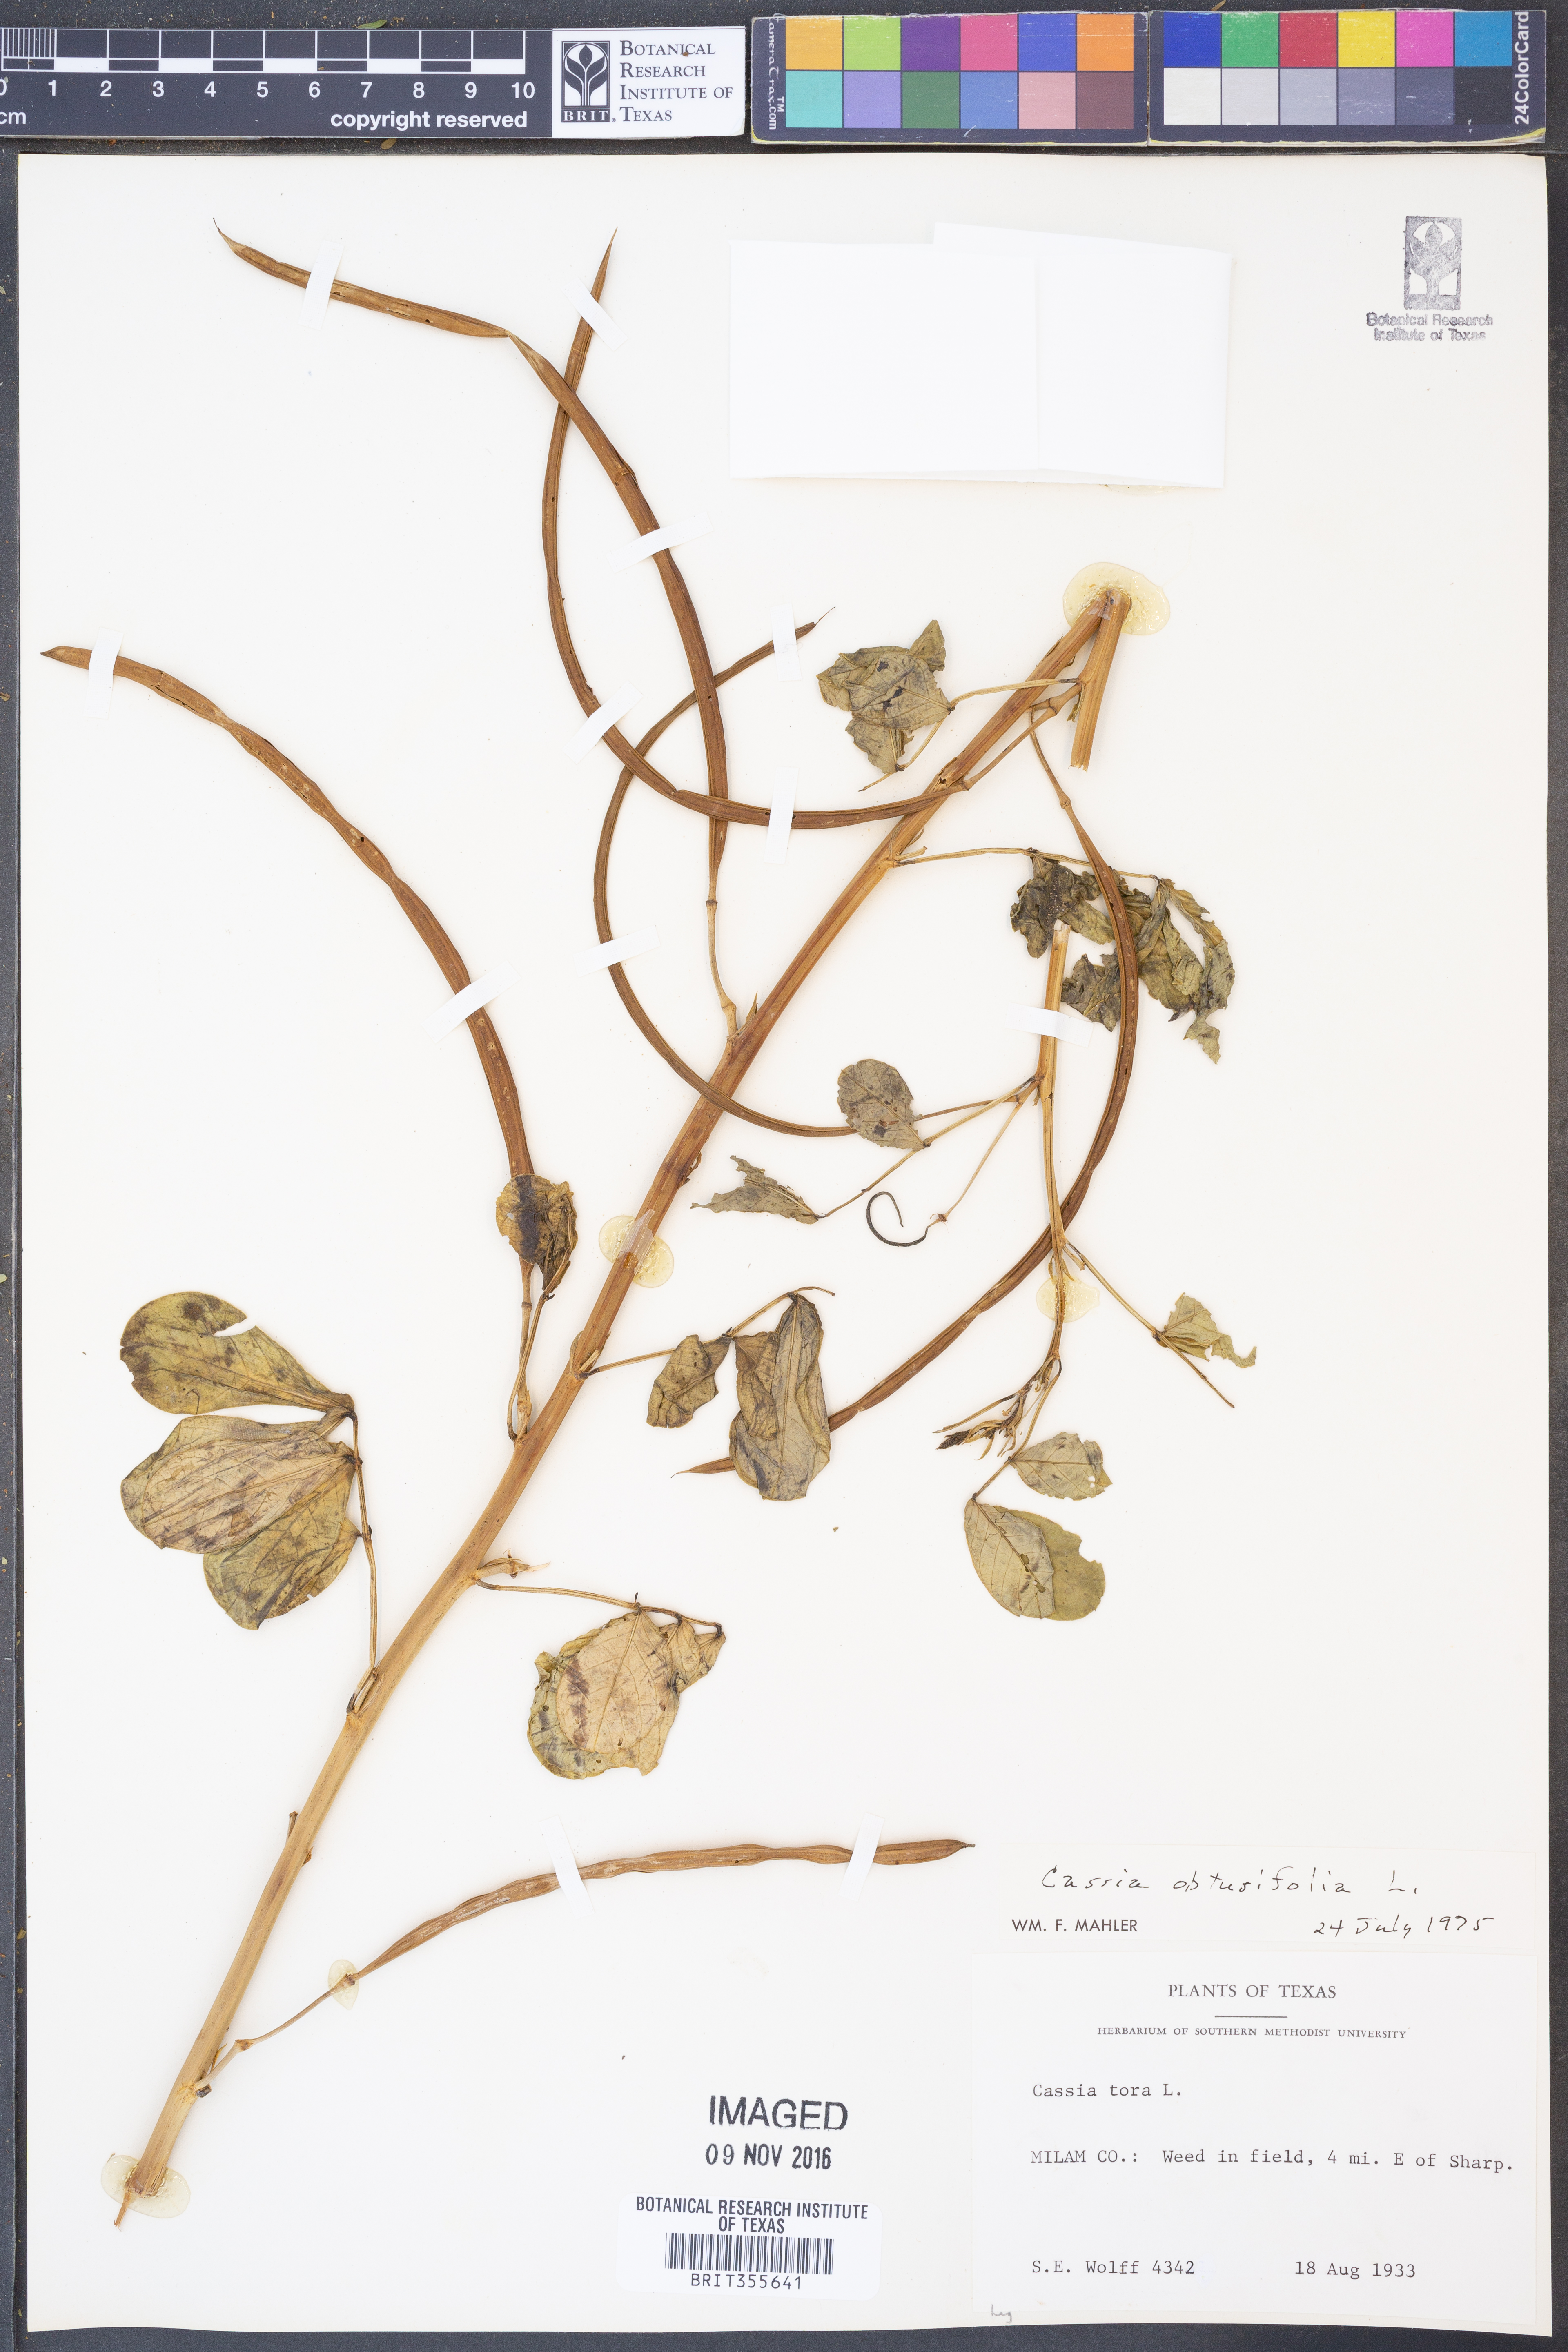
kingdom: Plantae
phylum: Tracheophyta
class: Magnoliopsida
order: Fabales
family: Fabaceae
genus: Senna
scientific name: Senna obtusifolia
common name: Java-bean
